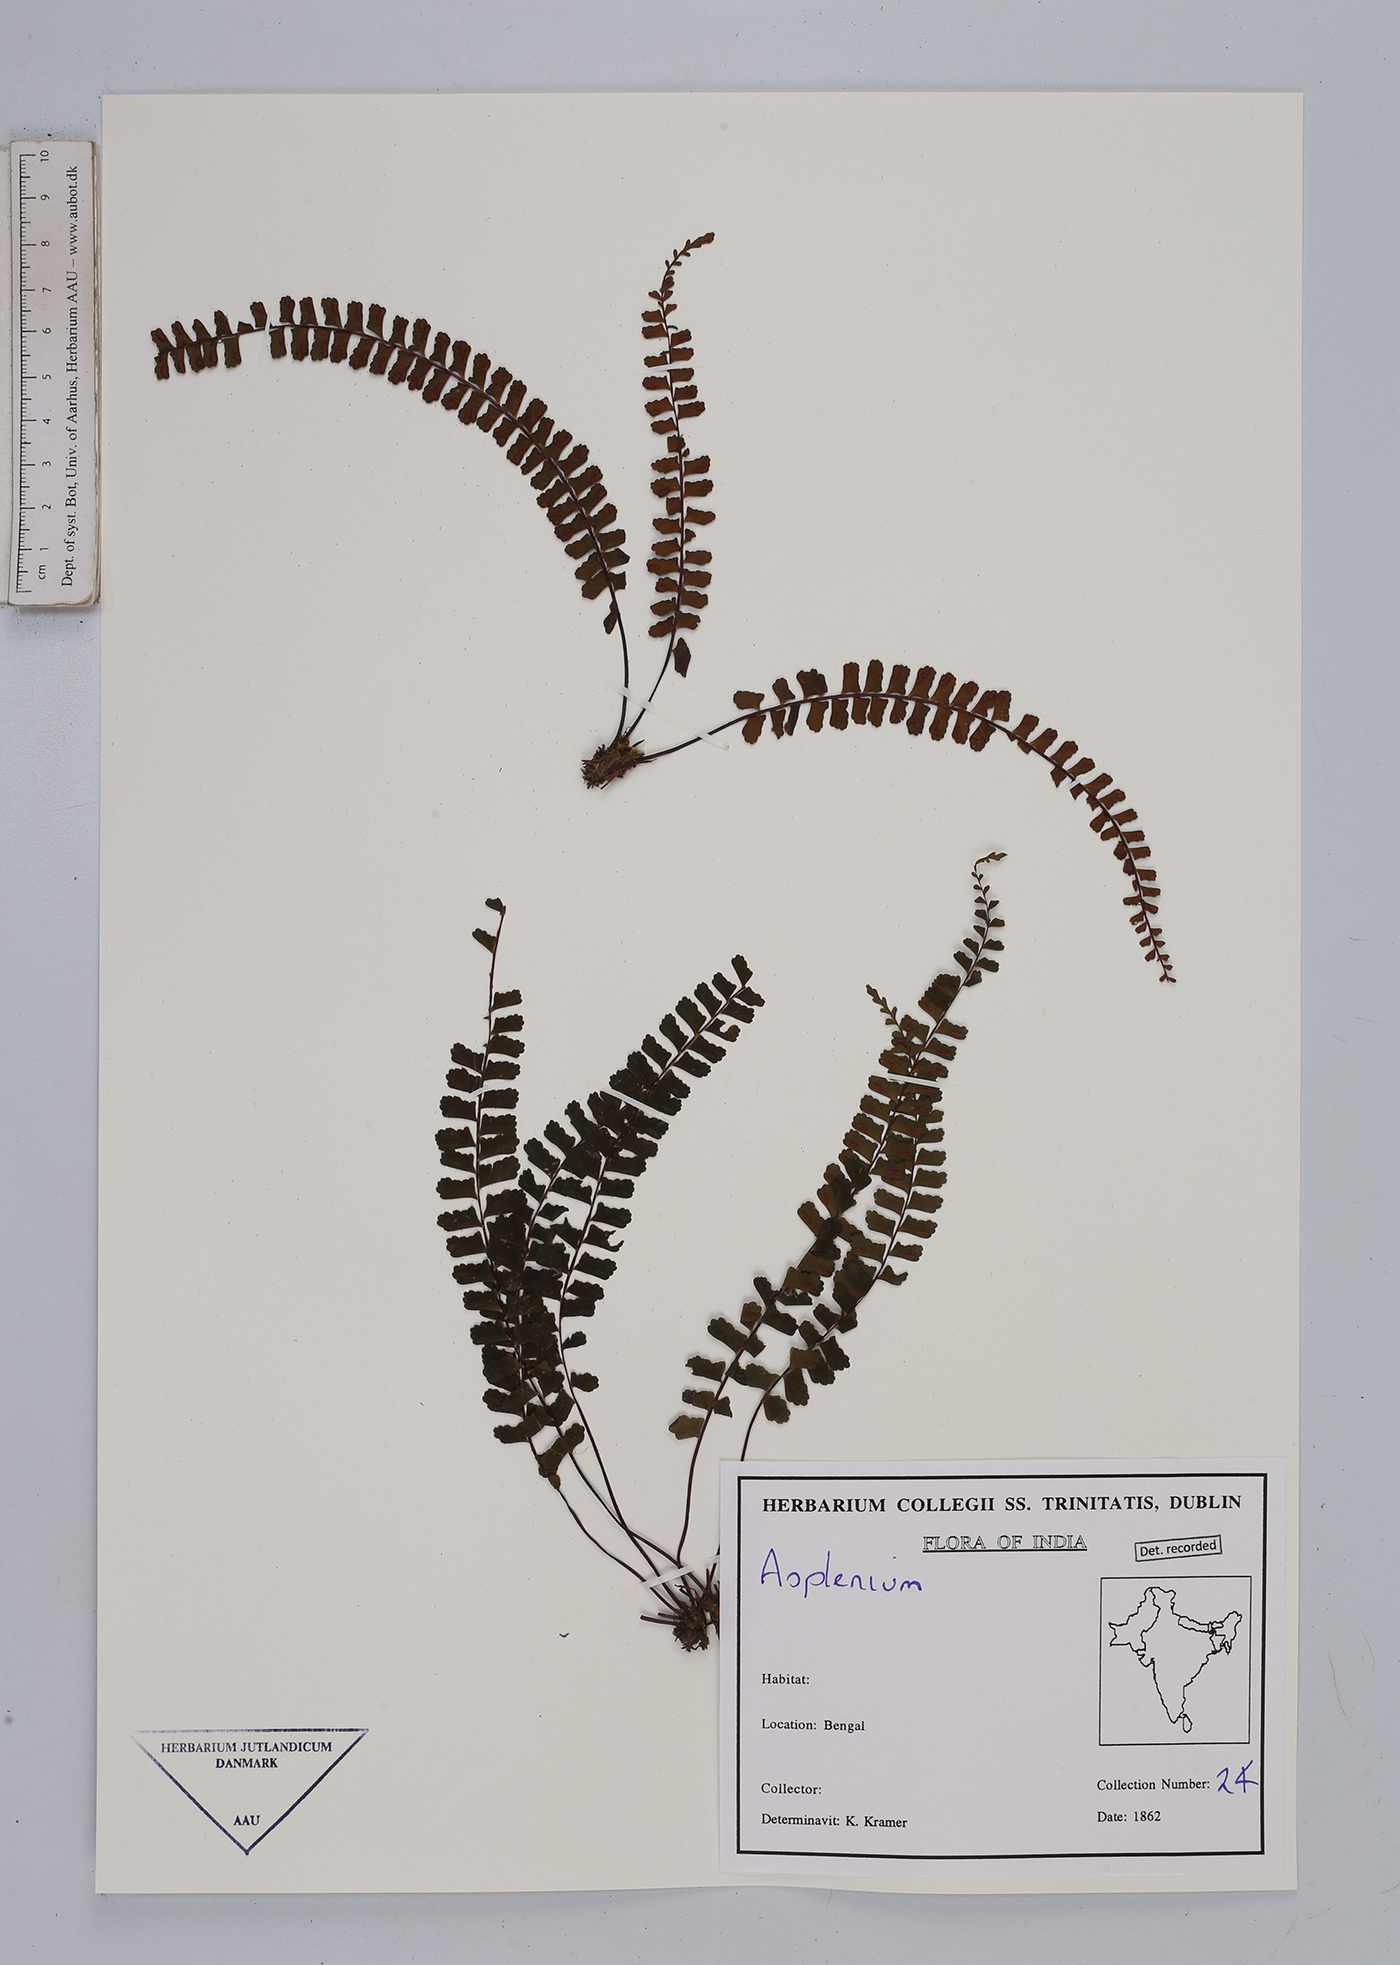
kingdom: Plantae
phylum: Tracheophyta
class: Polypodiopsida
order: Polypodiales
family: Aspleniaceae
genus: Asplenium
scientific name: Asplenium
